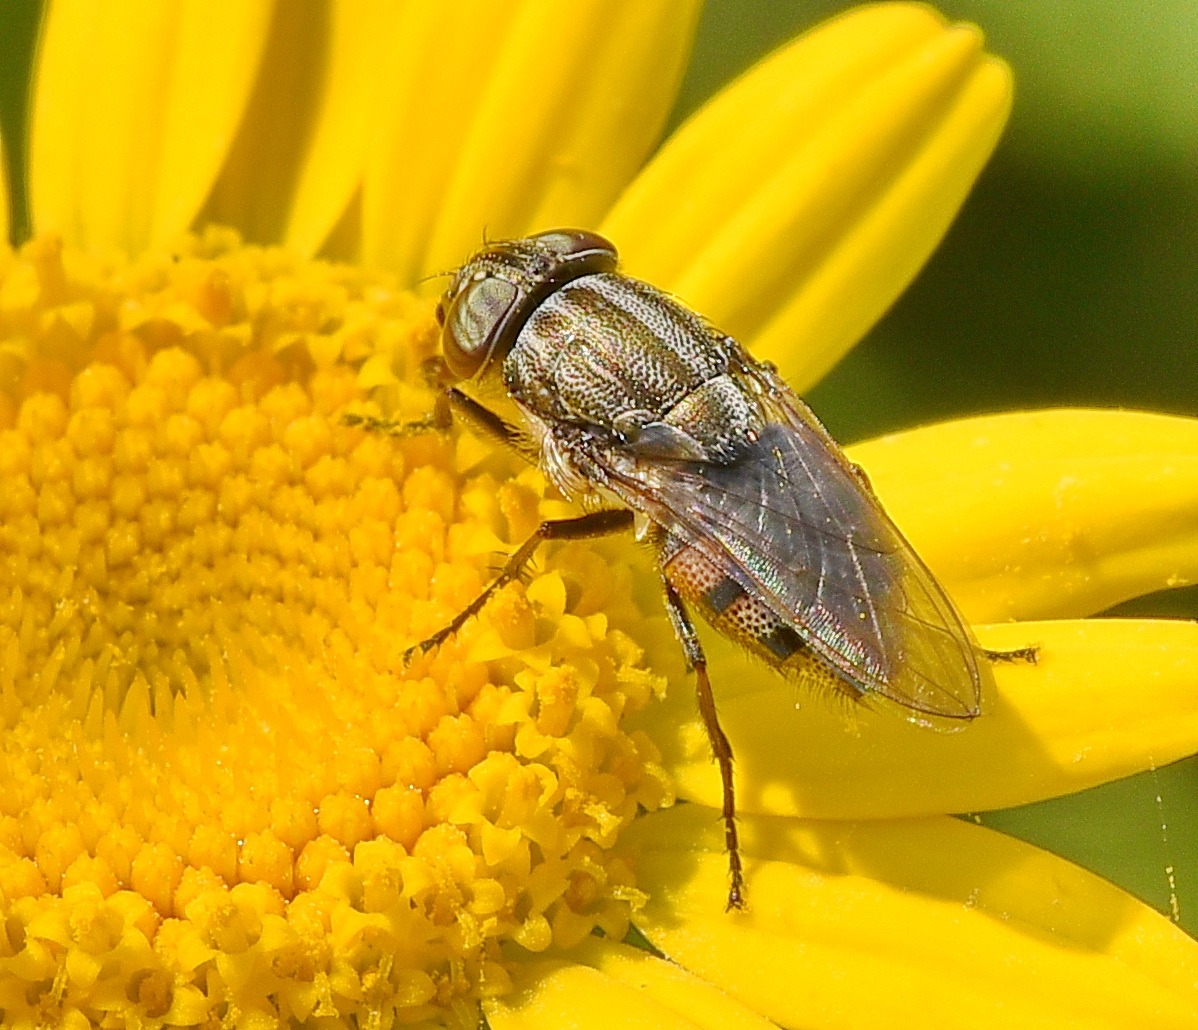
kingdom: Animalia
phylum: Arthropoda
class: Insecta
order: Diptera
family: Calliphoridae
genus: Stomorhina
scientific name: Stomorhina lunata
